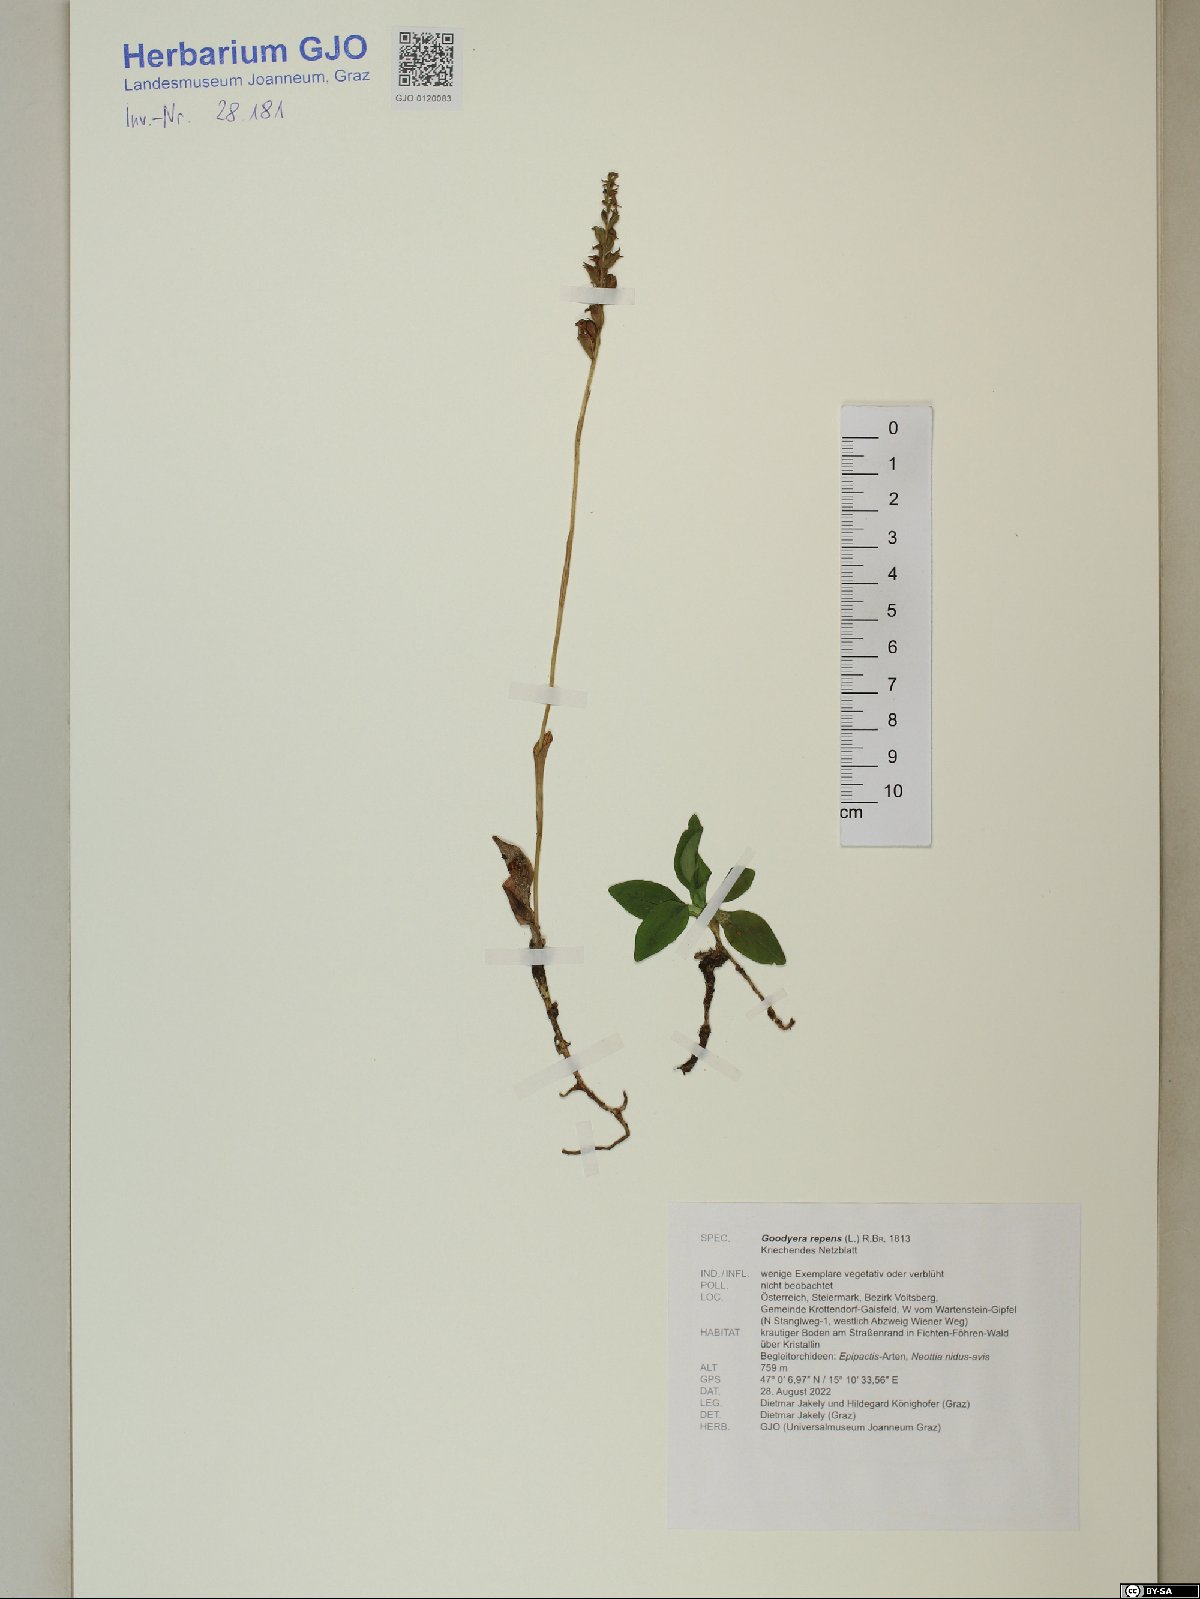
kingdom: Plantae
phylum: Tracheophyta
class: Liliopsida
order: Asparagales
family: Orchidaceae
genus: Goodyera
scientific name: Goodyera repens
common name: Creeping lady's-tresses
